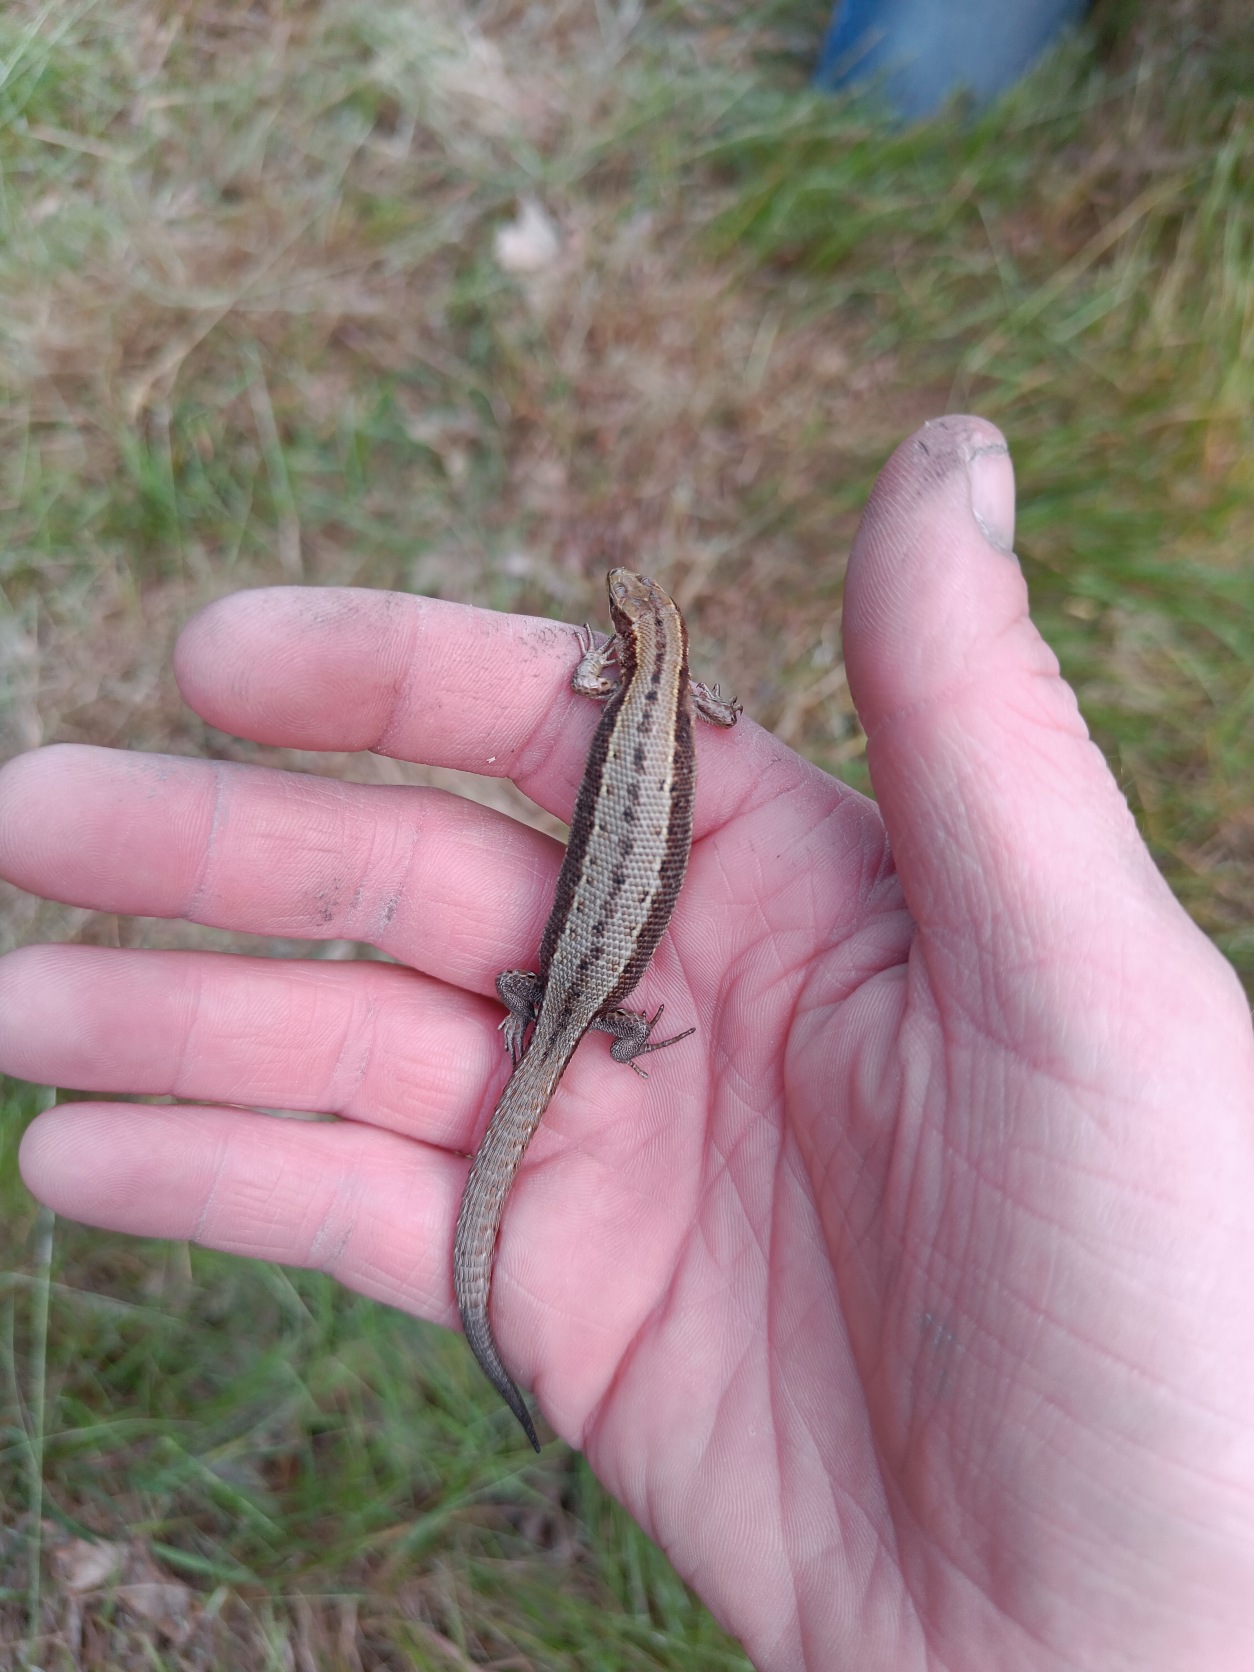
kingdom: Animalia
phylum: Chordata
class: Squamata
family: Lacertidae
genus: Zootoca
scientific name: Zootoca vivipara
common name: Skovfirben
